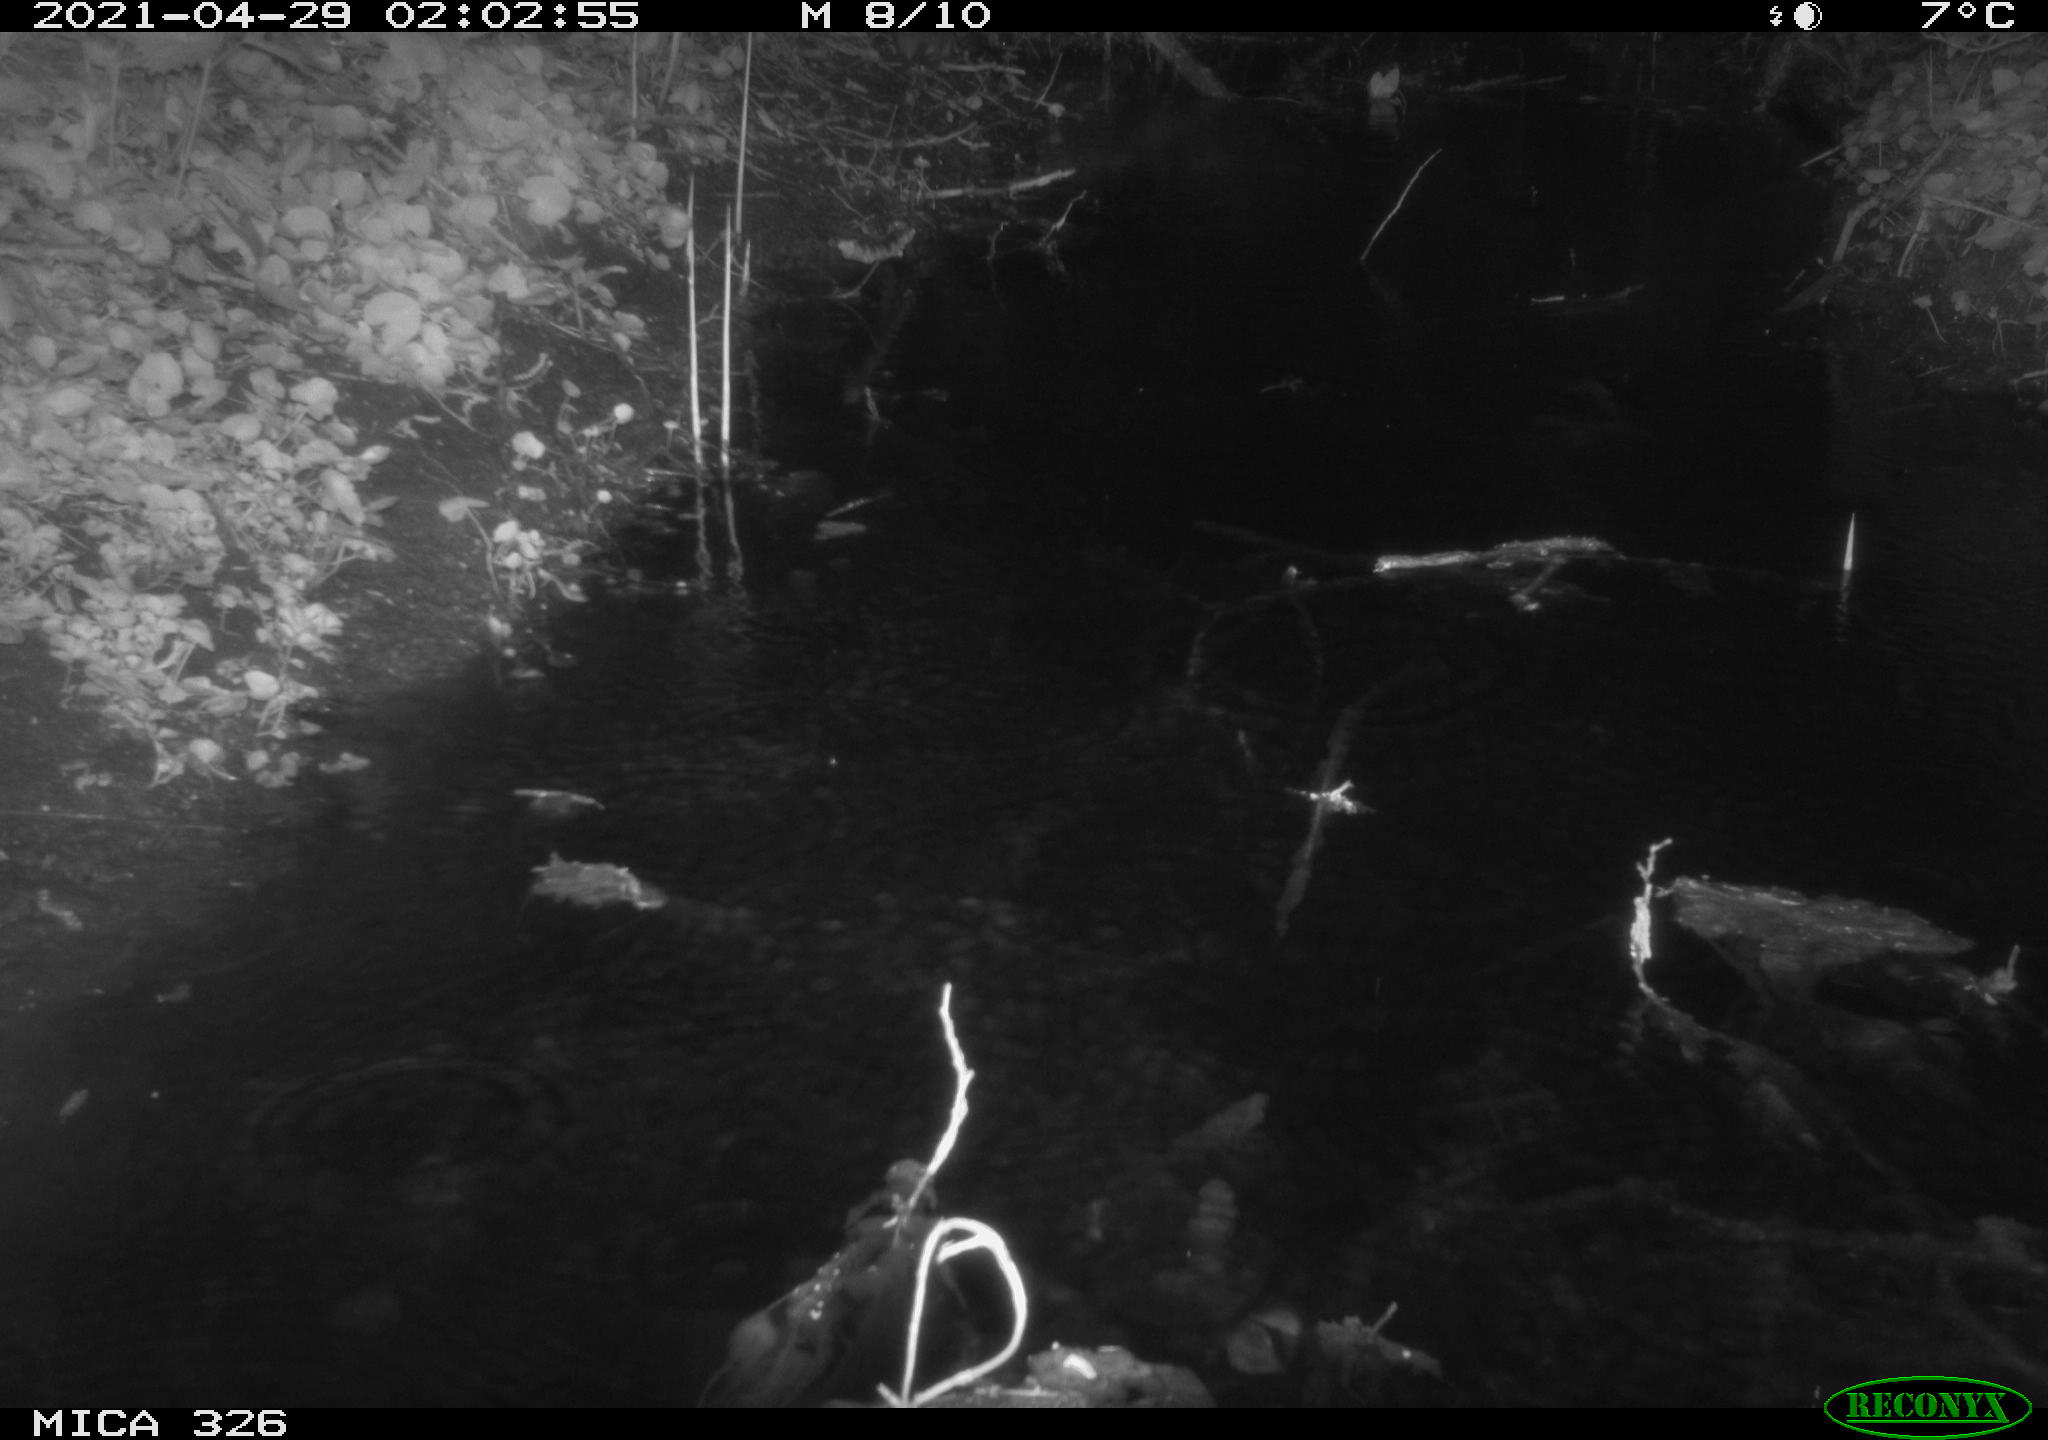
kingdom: Animalia
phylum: Chordata
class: Mammalia
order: Rodentia
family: Muridae
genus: Rattus
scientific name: Rattus norvegicus
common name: Brown rat
